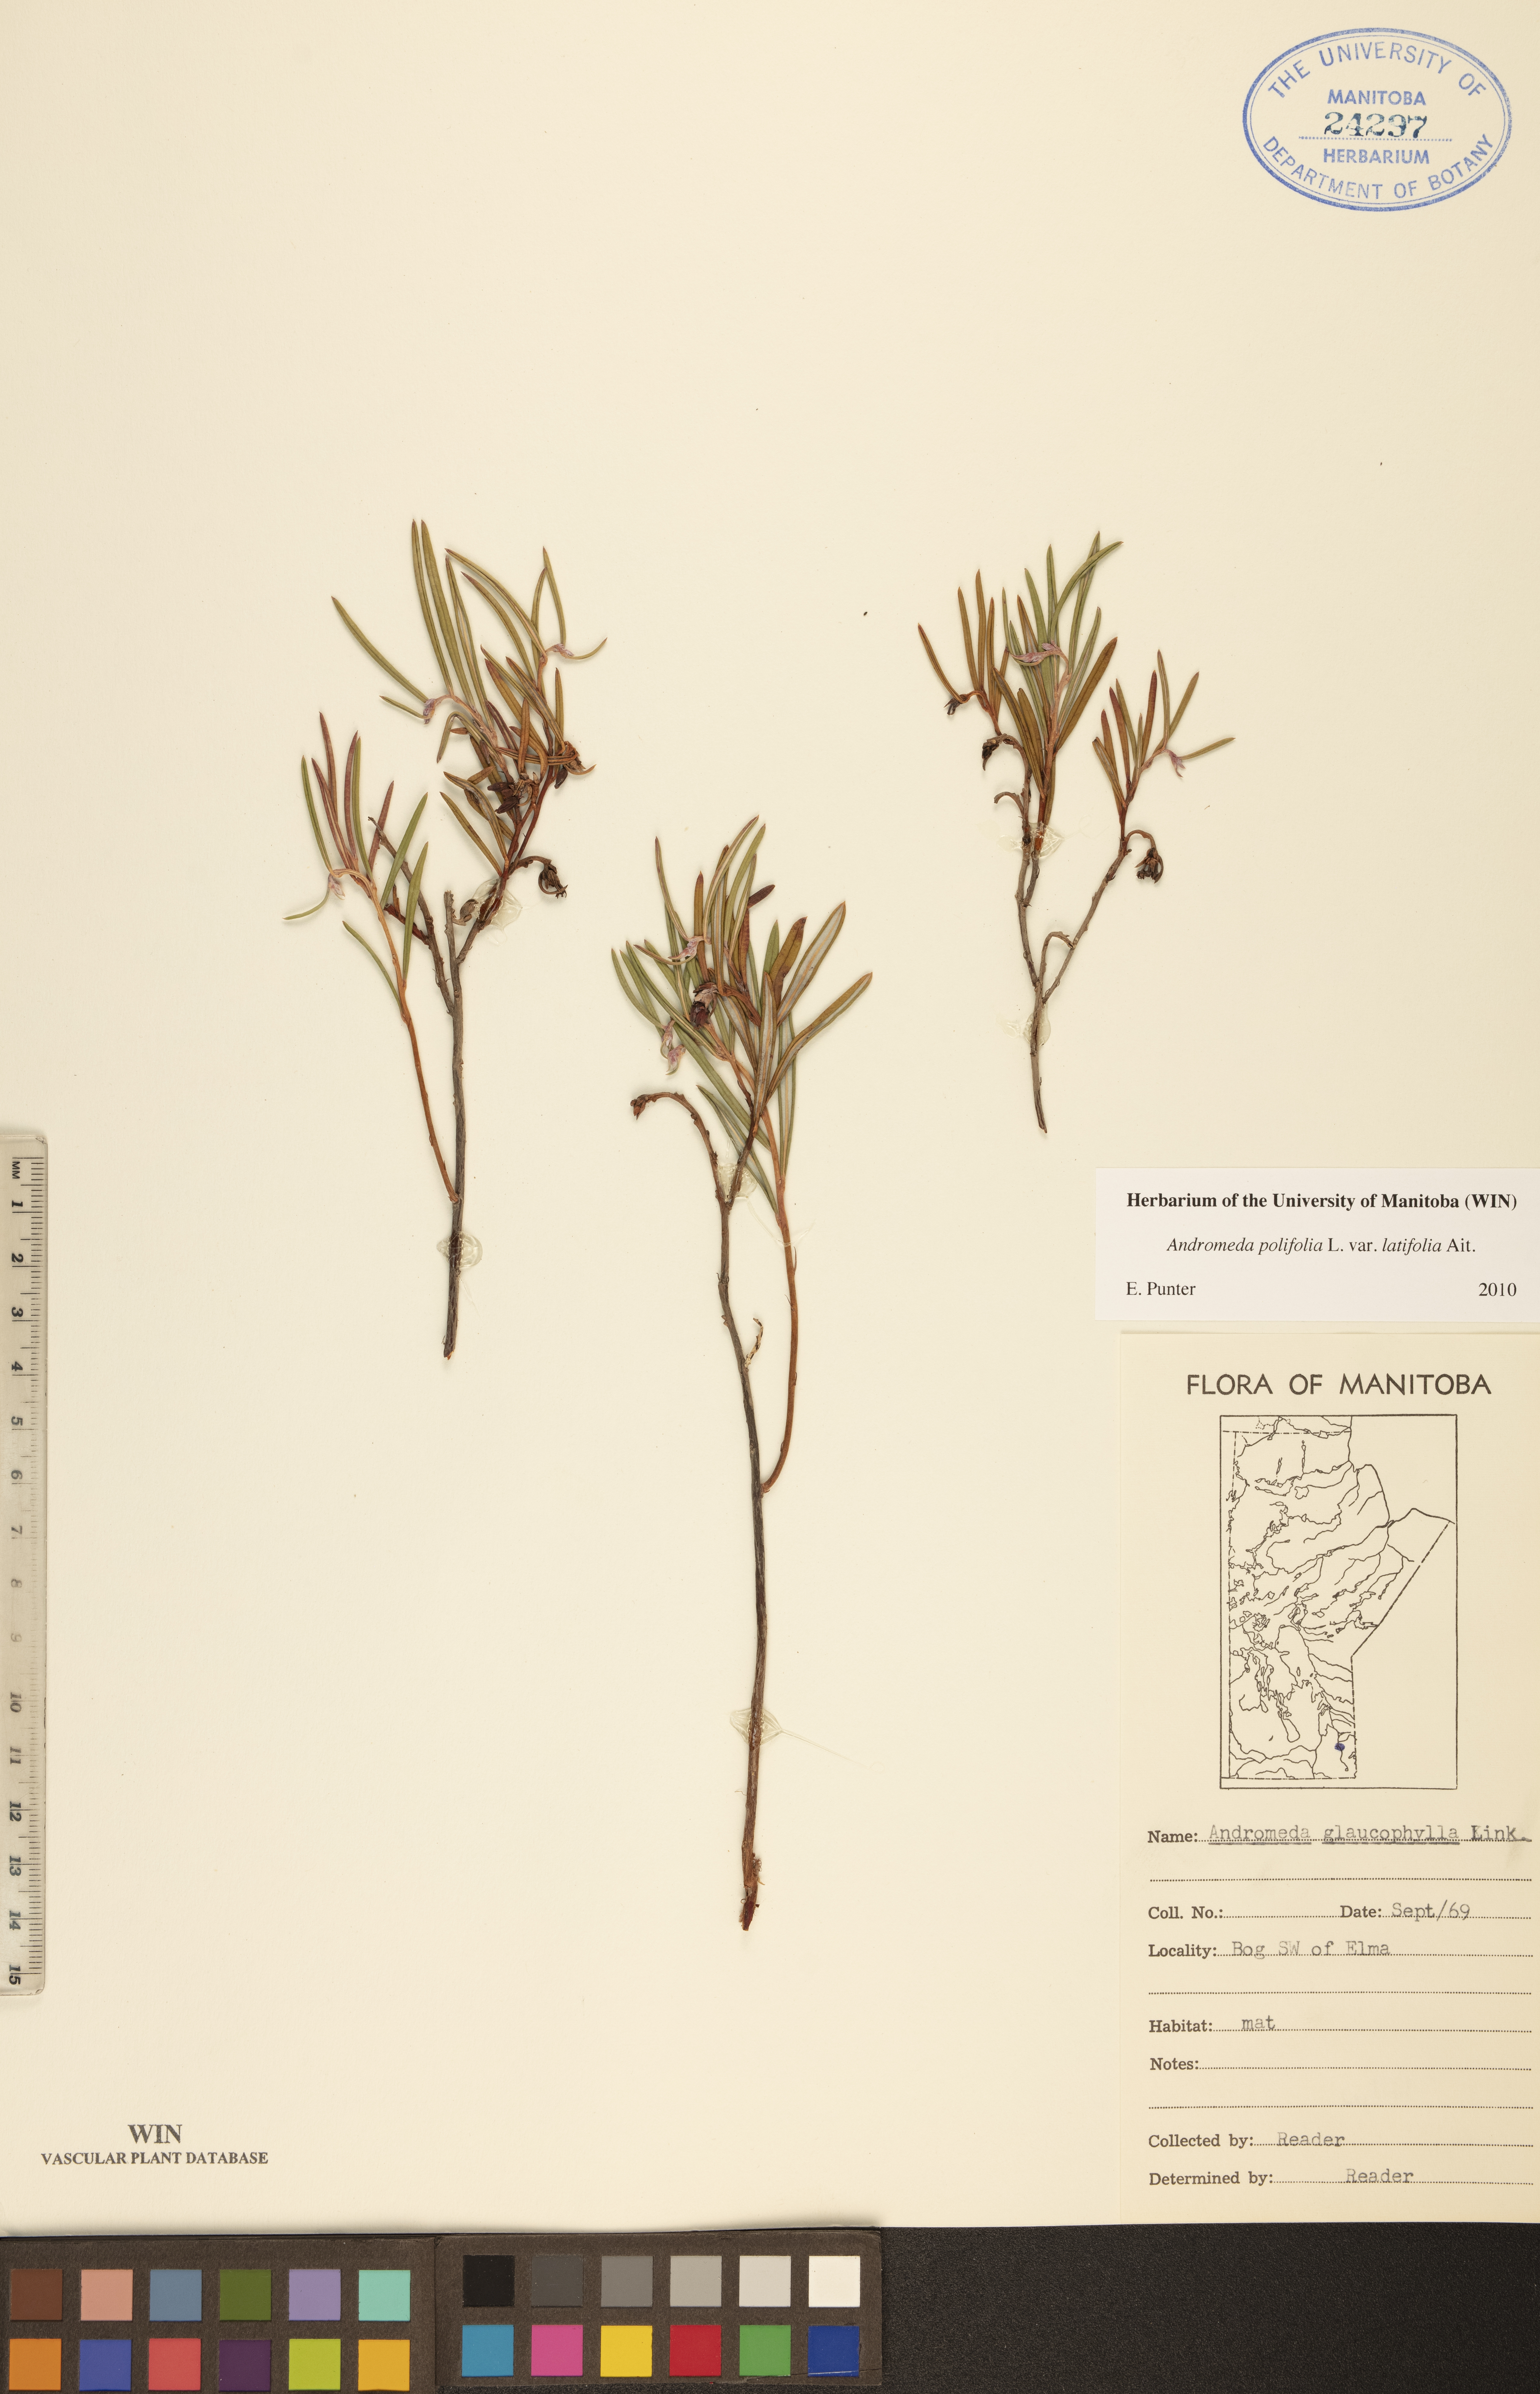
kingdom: Plantae
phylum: Tracheophyta
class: Magnoliopsida
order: Ericales
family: Ericaceae
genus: Andromeda
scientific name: Andromeda polifolia
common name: Bog-rosemary
